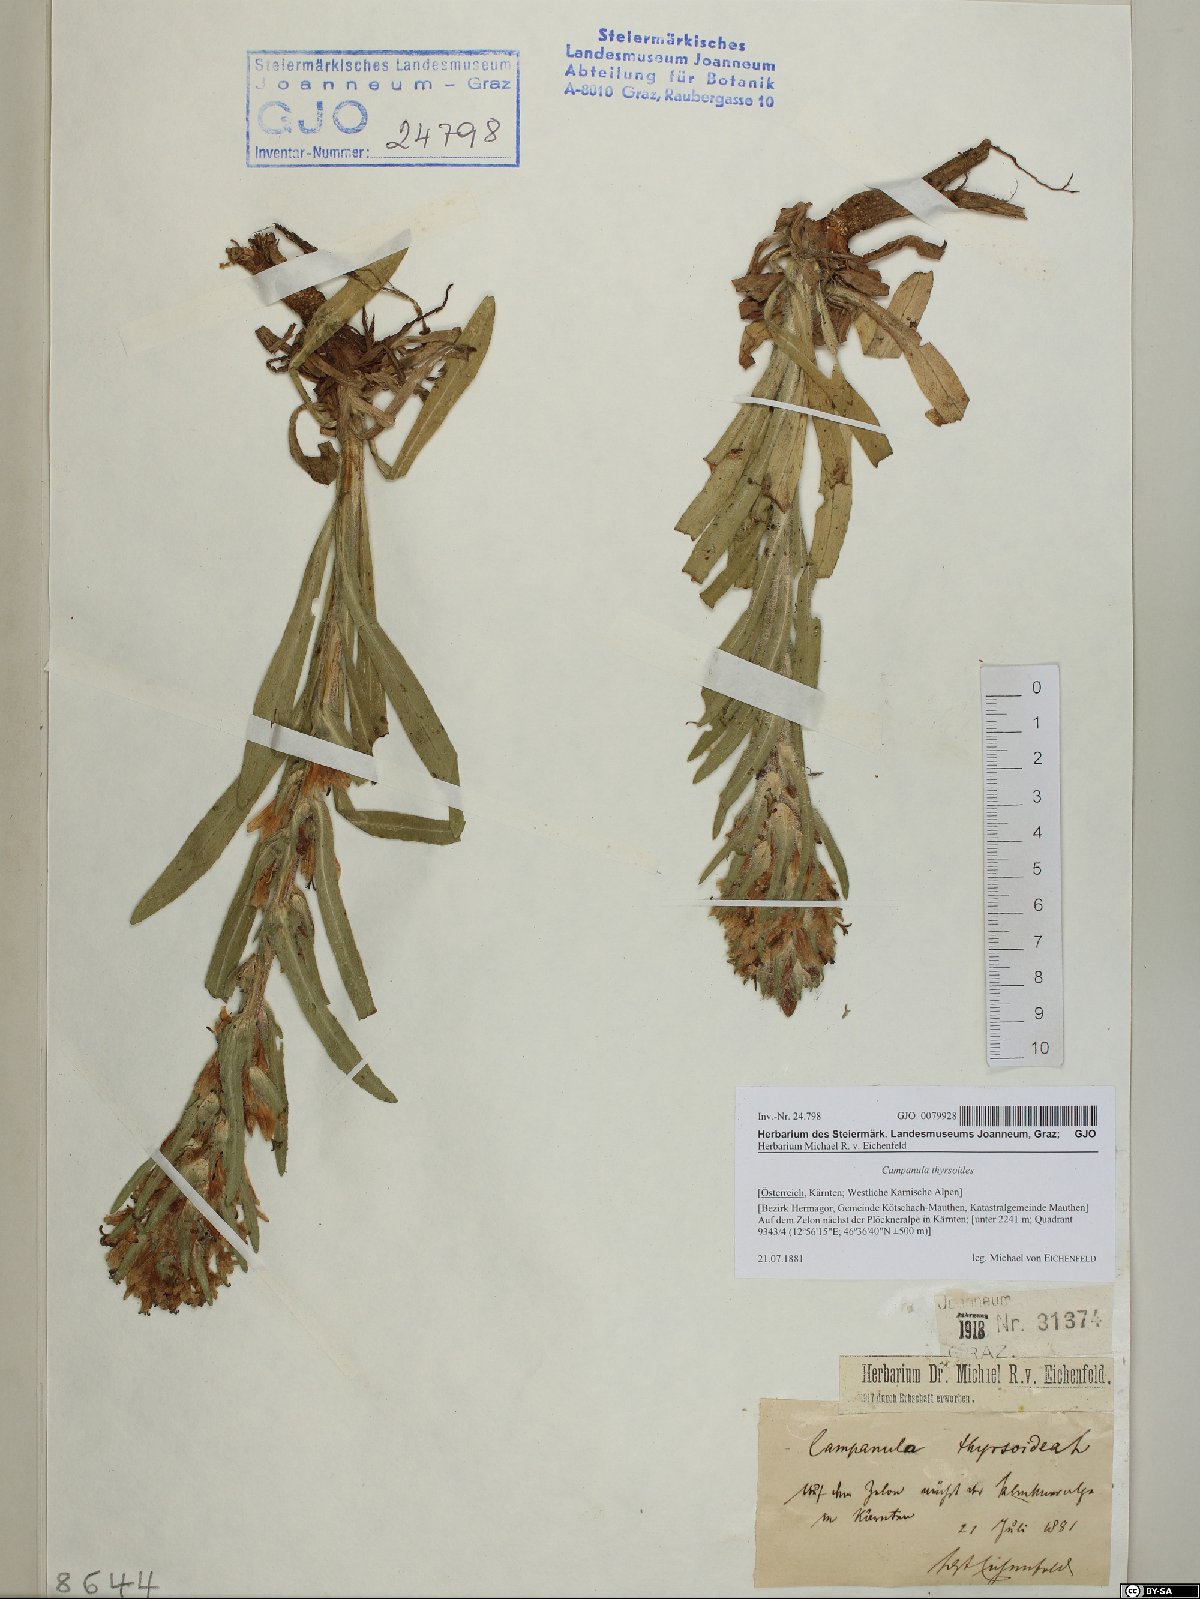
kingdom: Plantae
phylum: Tracheophyta
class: Magnoliopsida
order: Asterales
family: Campanulaceae
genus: Campanula
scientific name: Campanula thyrsoides
